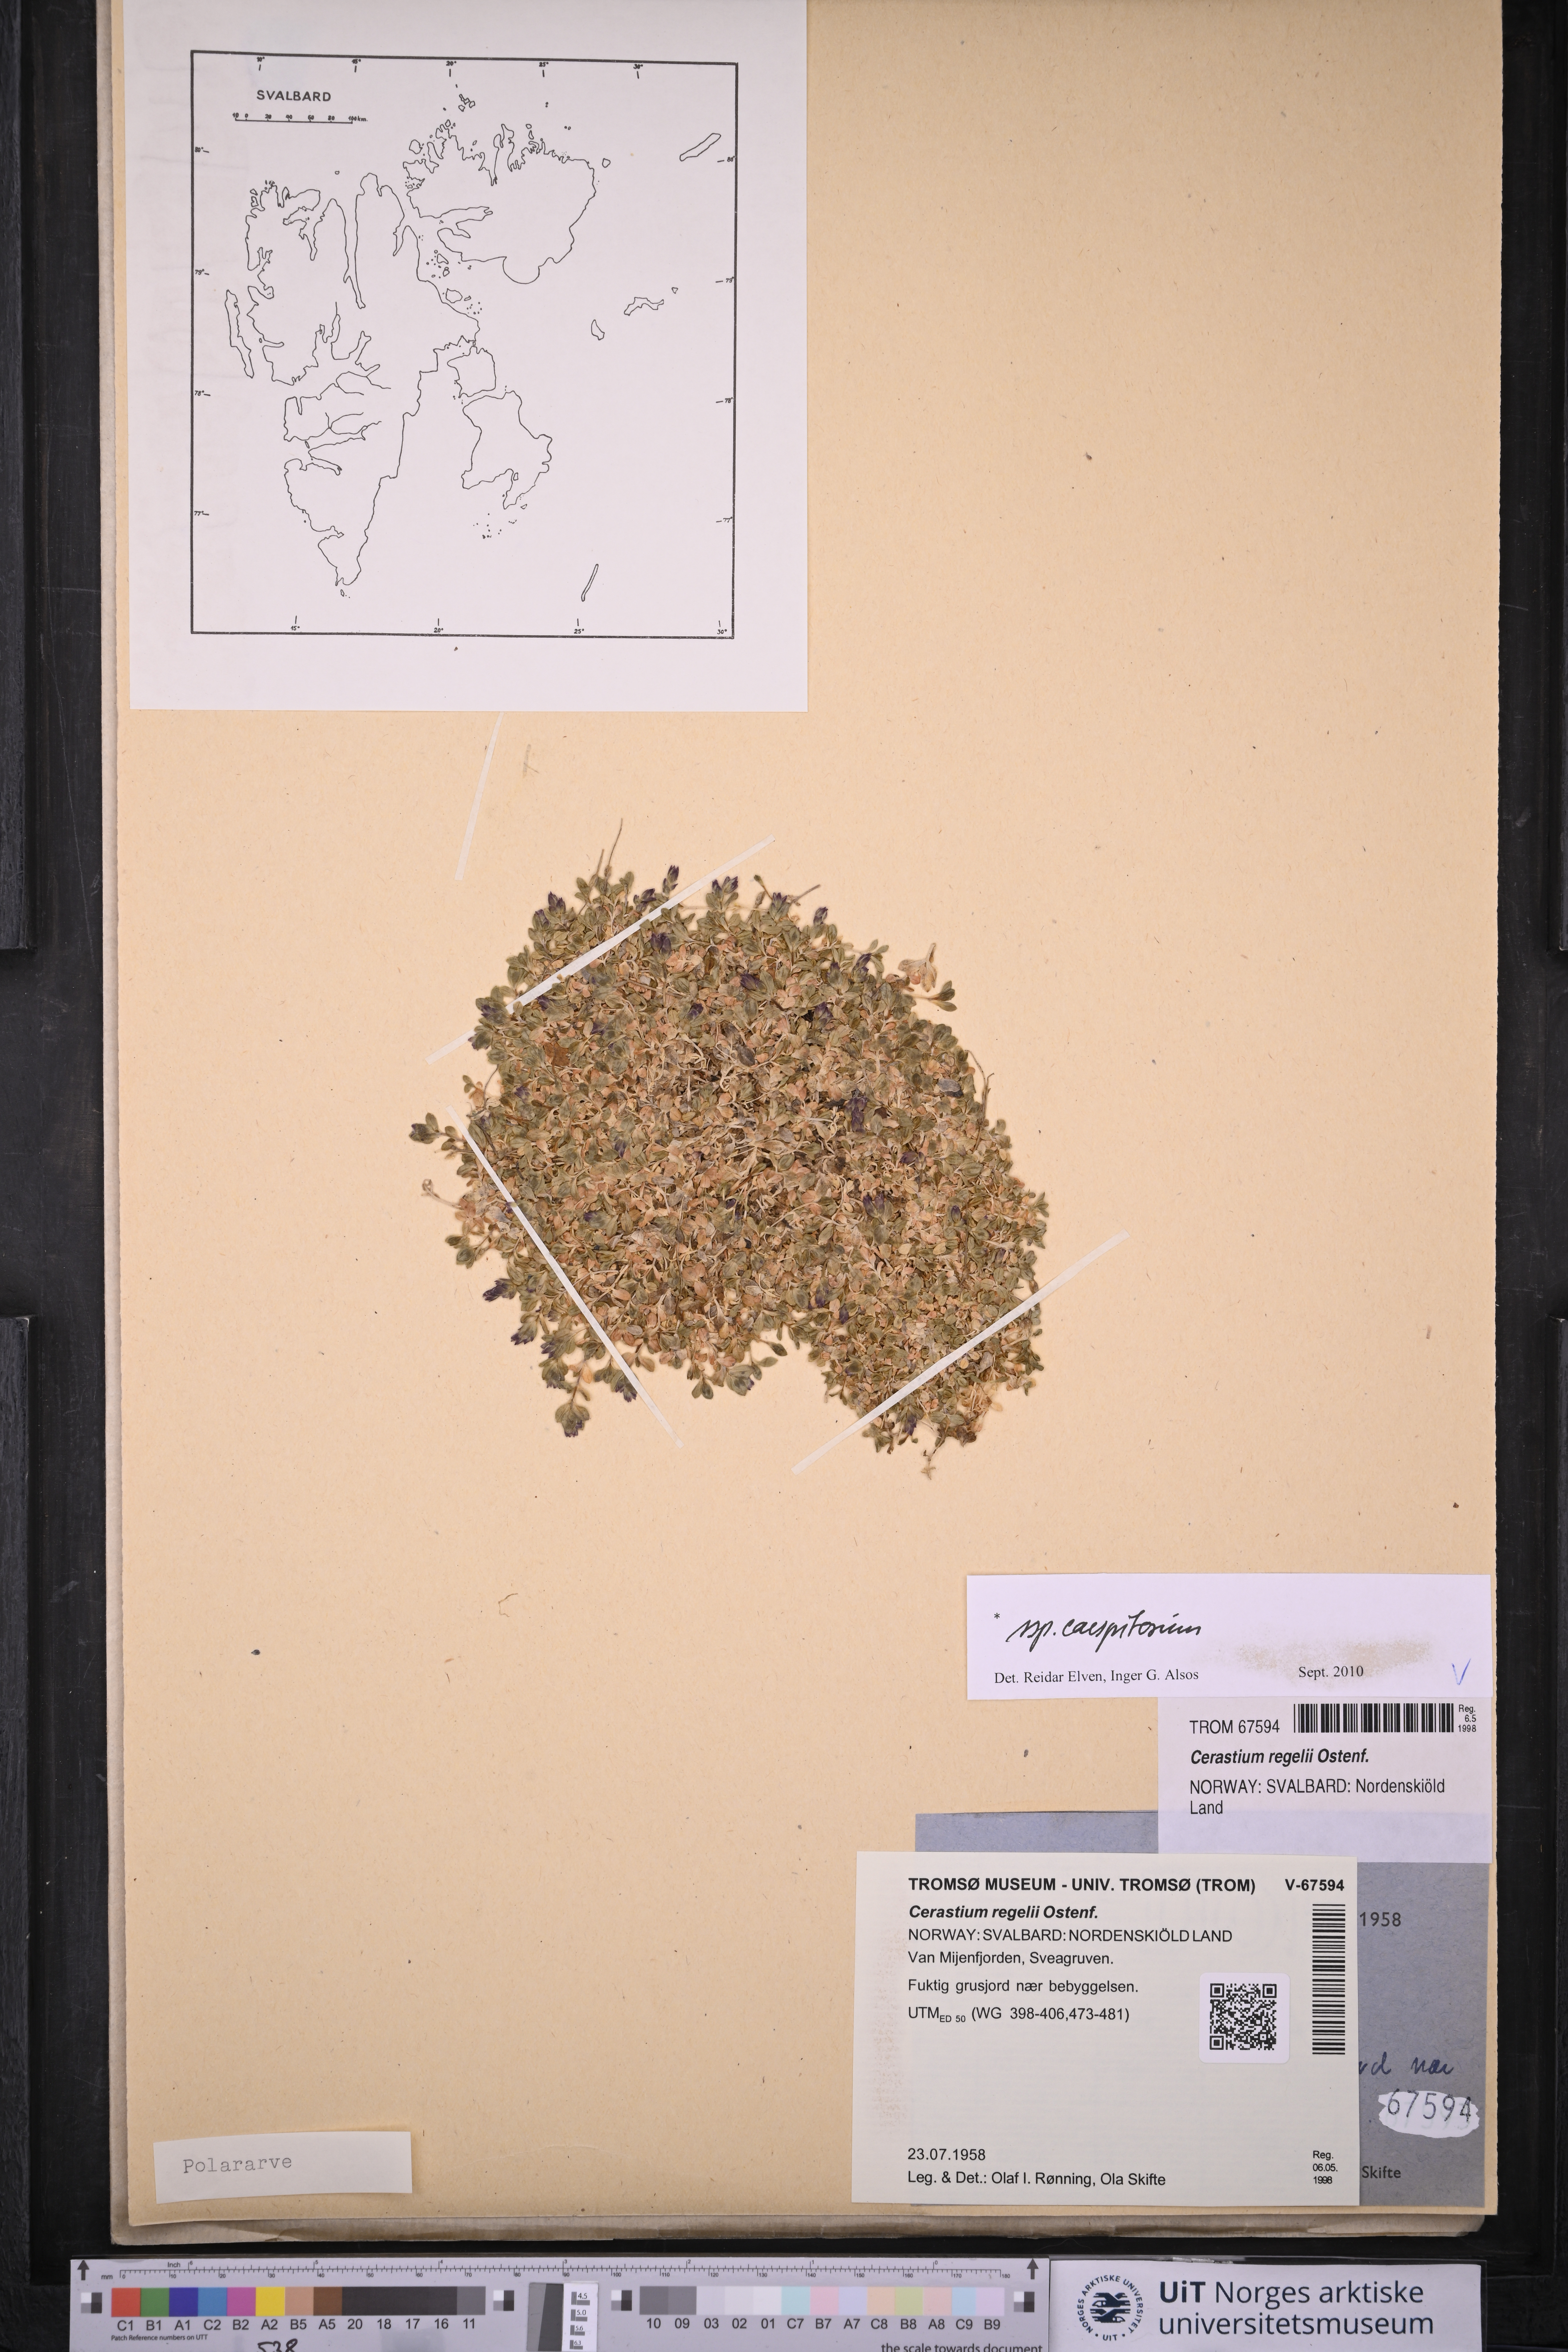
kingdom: Plantae
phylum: Tracheophyta
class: Magnoliopsida
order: Caryophyllales
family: Caryophyllaceae
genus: Cerastium
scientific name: Cerastium regelii
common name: Regel's chickweed
